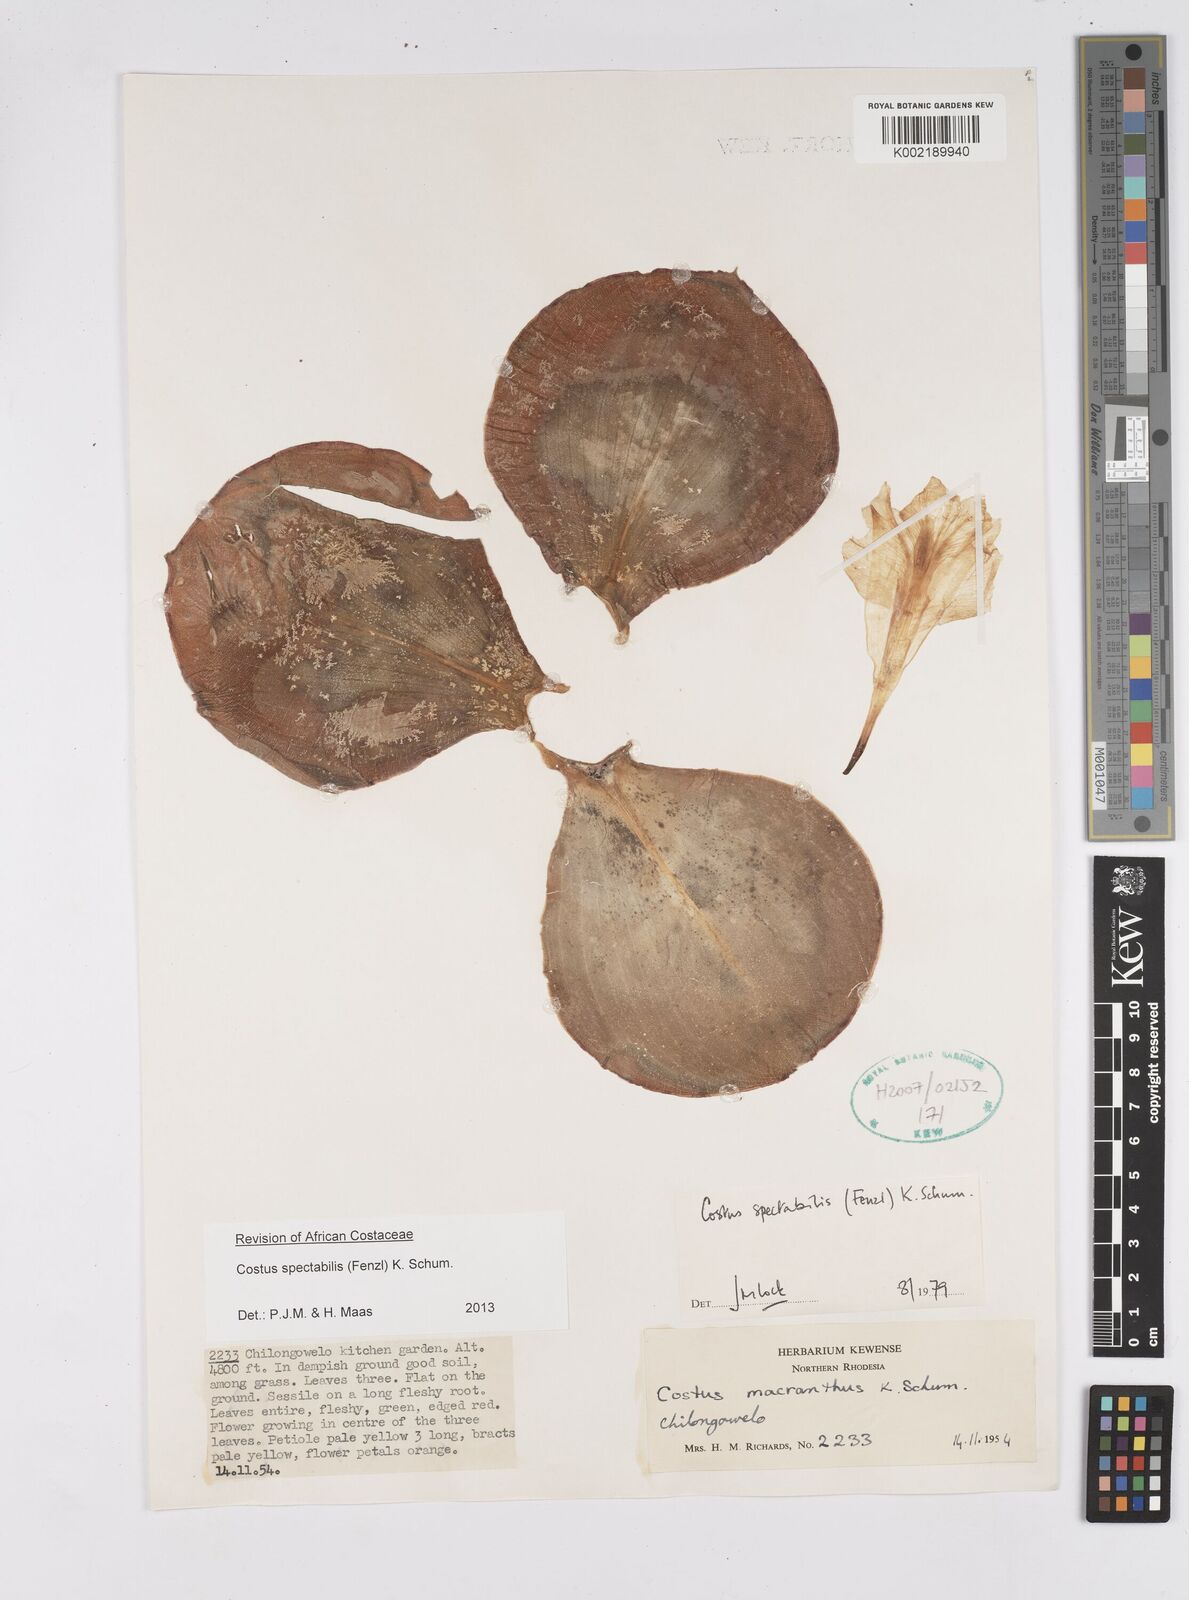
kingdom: Plantae
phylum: Tracheophyta
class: Liliopsida
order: Zingiberales
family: Costaceae
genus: Costus
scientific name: Costus spectabilis
